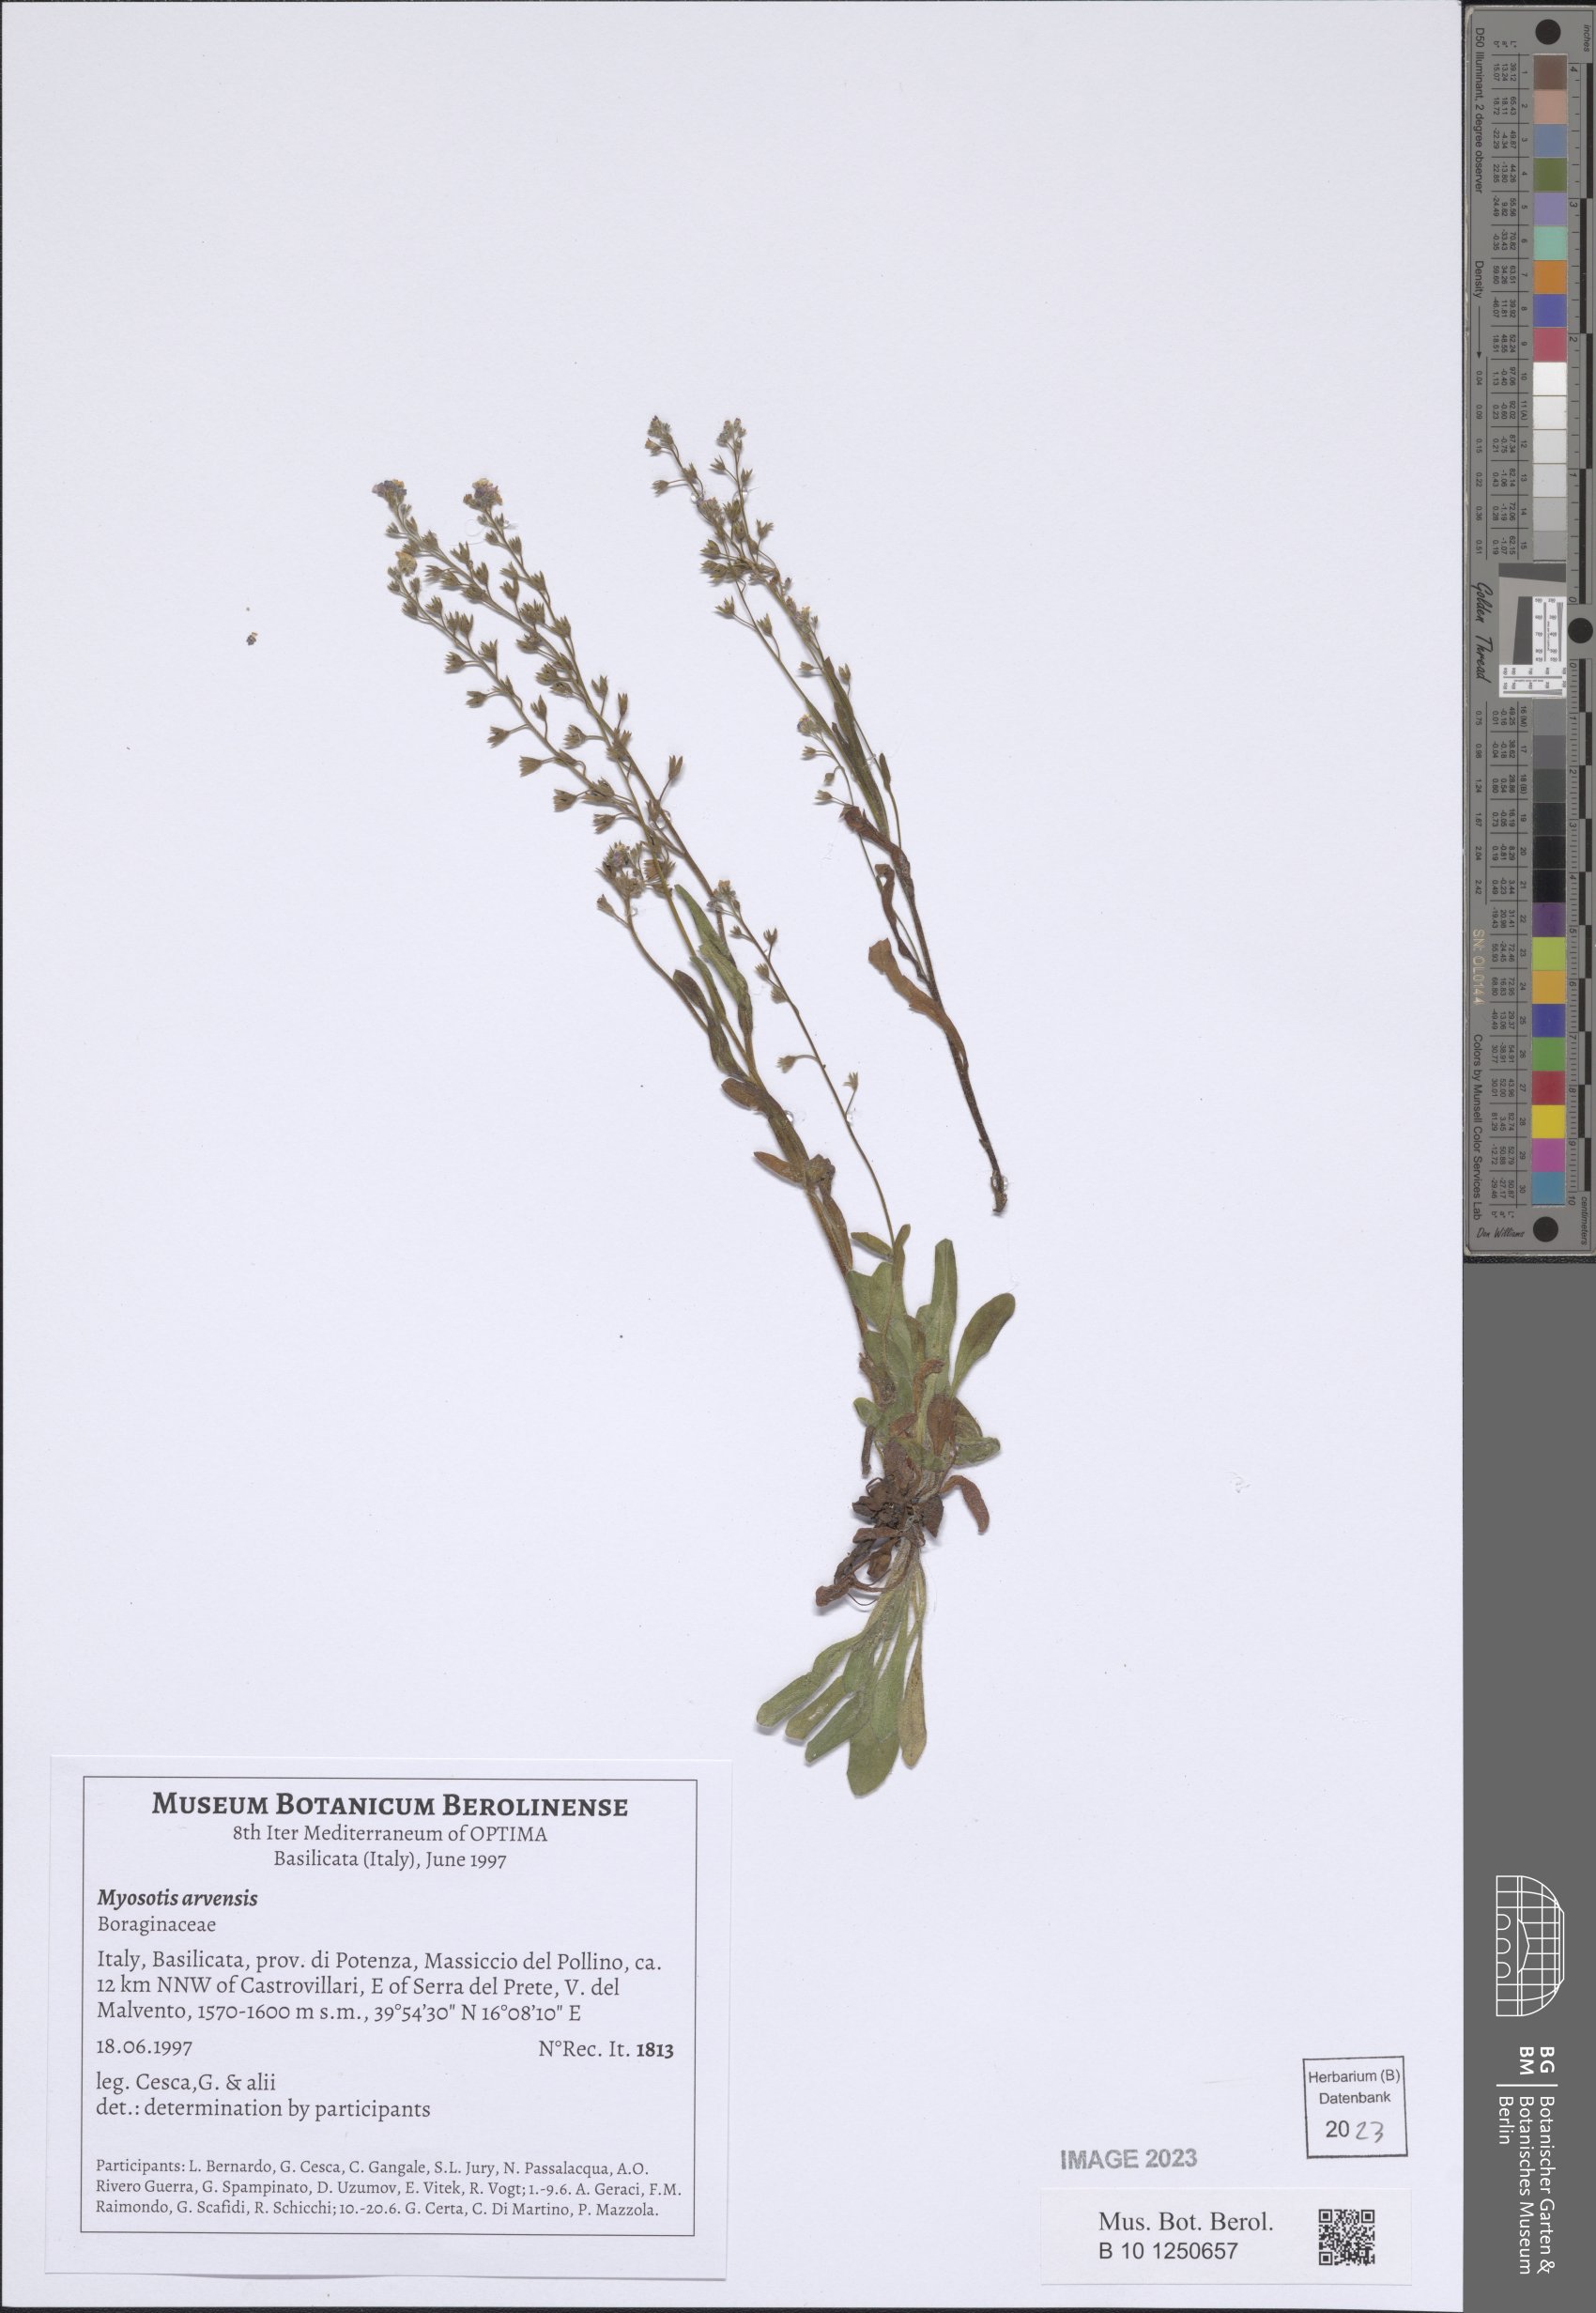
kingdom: Plantae
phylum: Tracheophyta
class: Magnoliopsida
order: Boraginales
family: Boraginaceae
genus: Myosotis
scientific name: Myosotis arvensis
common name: Field forget-me-not
